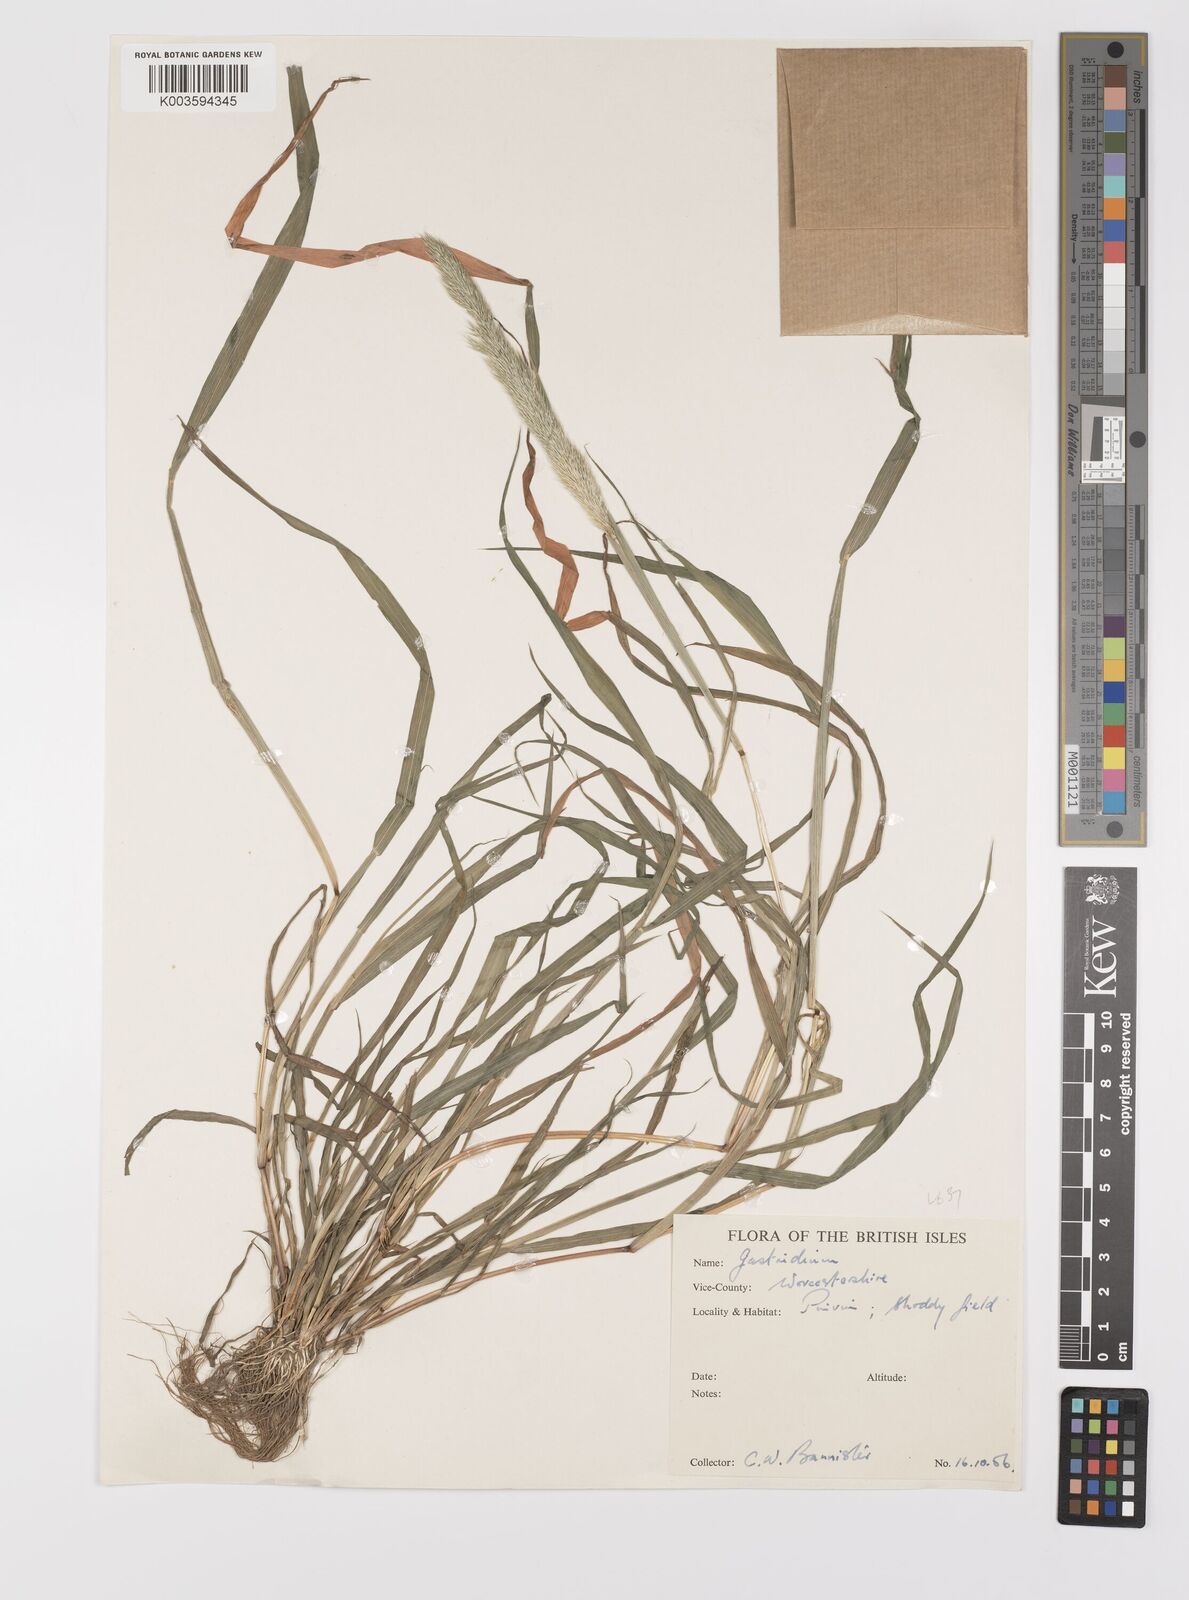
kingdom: Plantae
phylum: Tracheophyta
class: Liliopsida
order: Poales
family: Poaceae
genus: Gastridium
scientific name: Gastridium phleoides
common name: Nit grass
